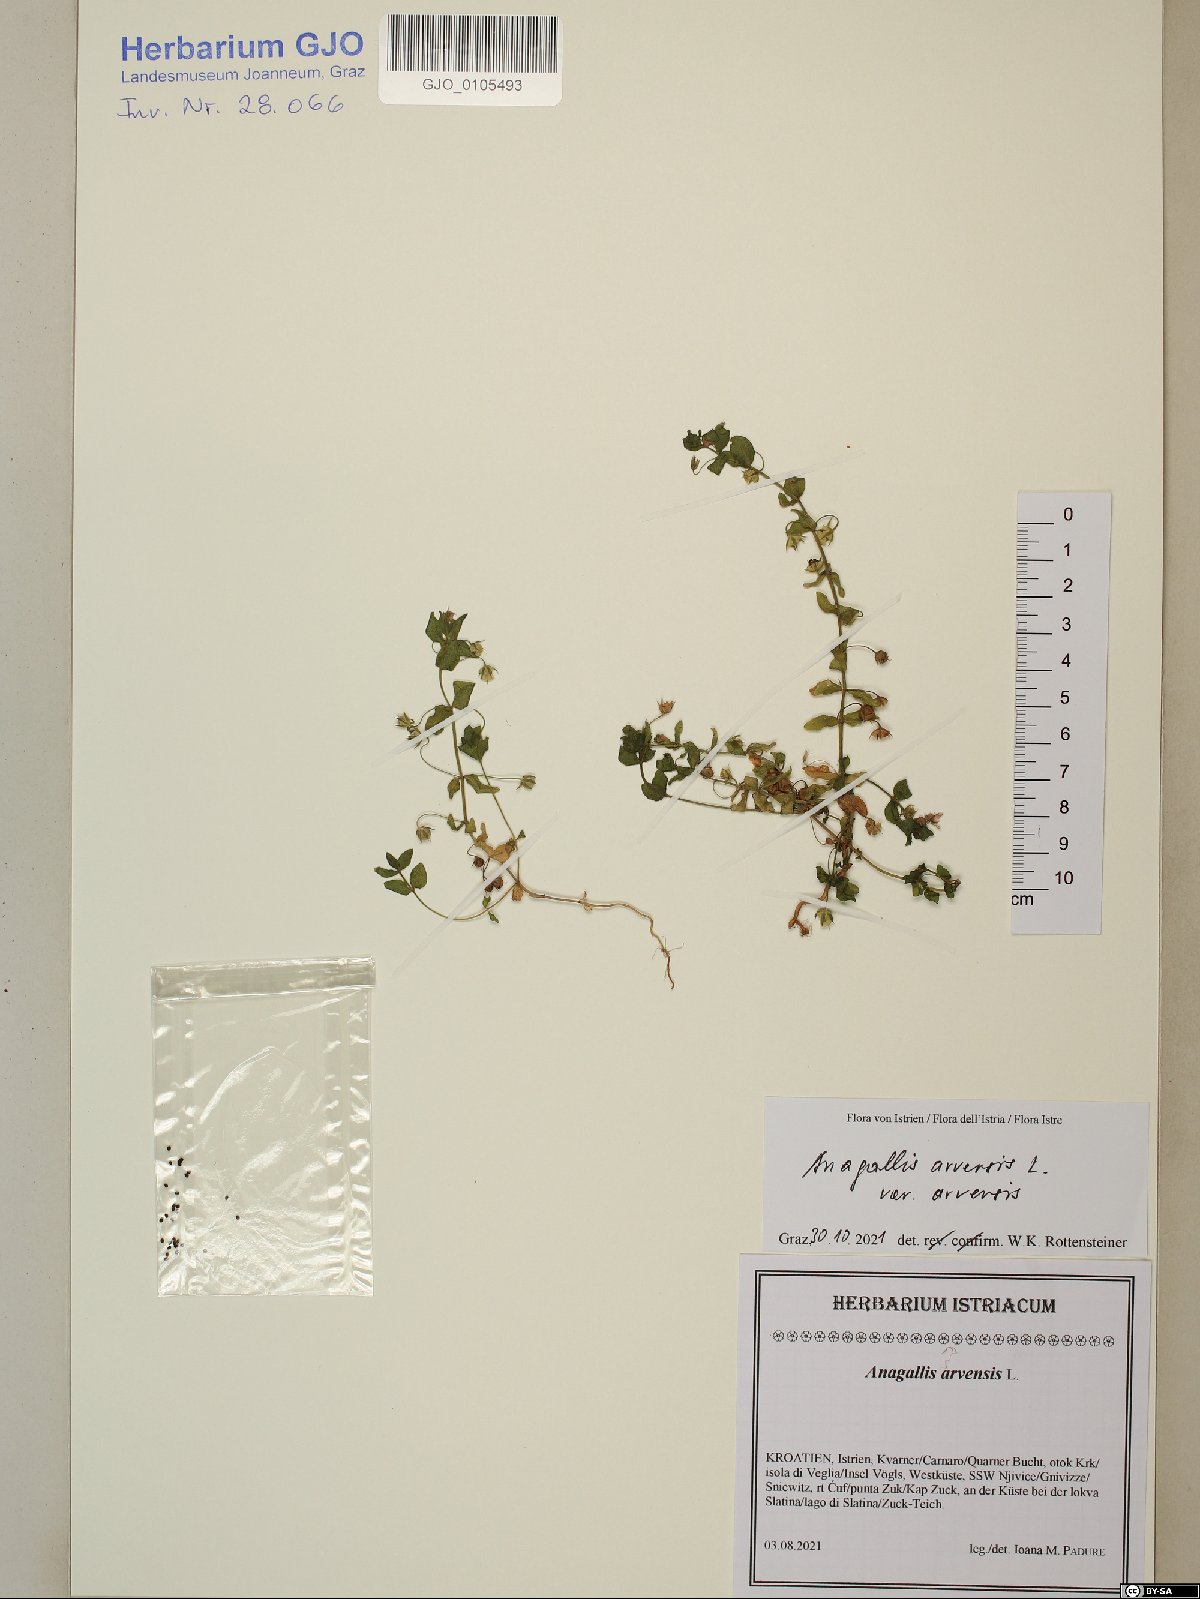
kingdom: Plantae
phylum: Tracheophyta
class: Magnoliopsida
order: Ericales
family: Primulaceae
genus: Lysimachia
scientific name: Lysimachia arvensis
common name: Scarlet pimpernel
